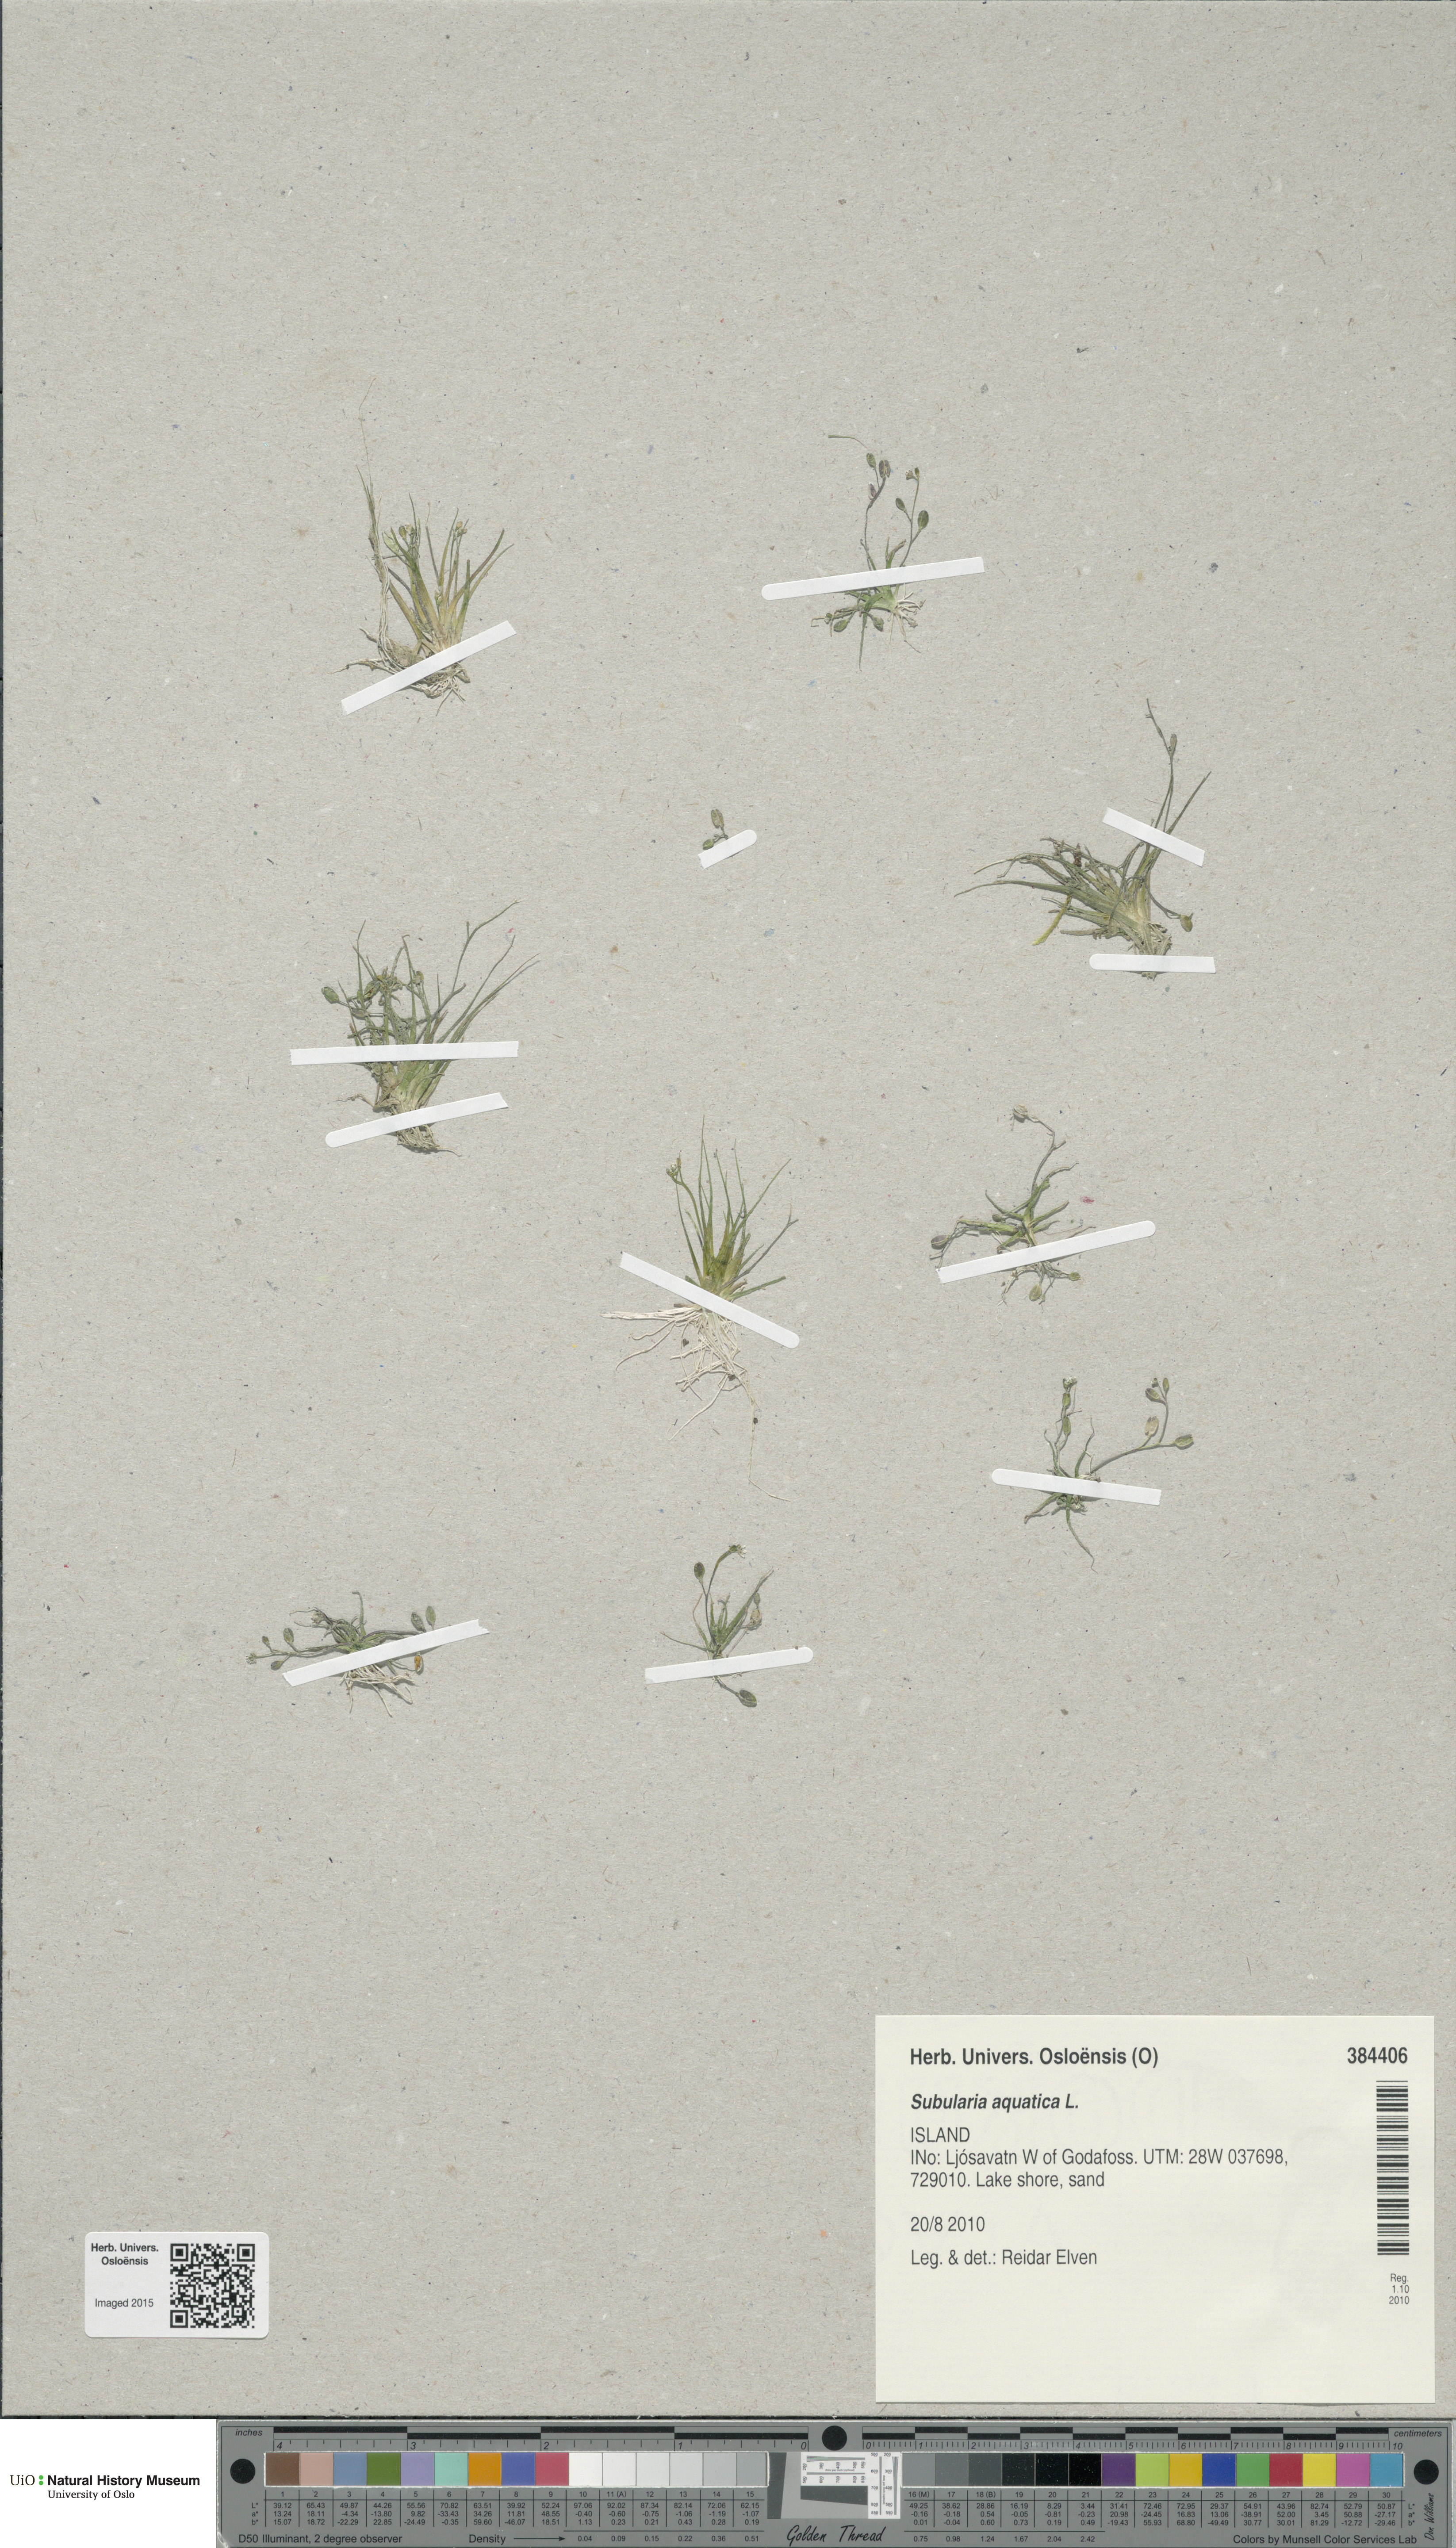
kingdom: Plantae
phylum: Tracheophyta
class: Magnoliopsida
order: Brassicales
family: Brassicaceae
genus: Subularia
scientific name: Subularia aquatica
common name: Awlwort
